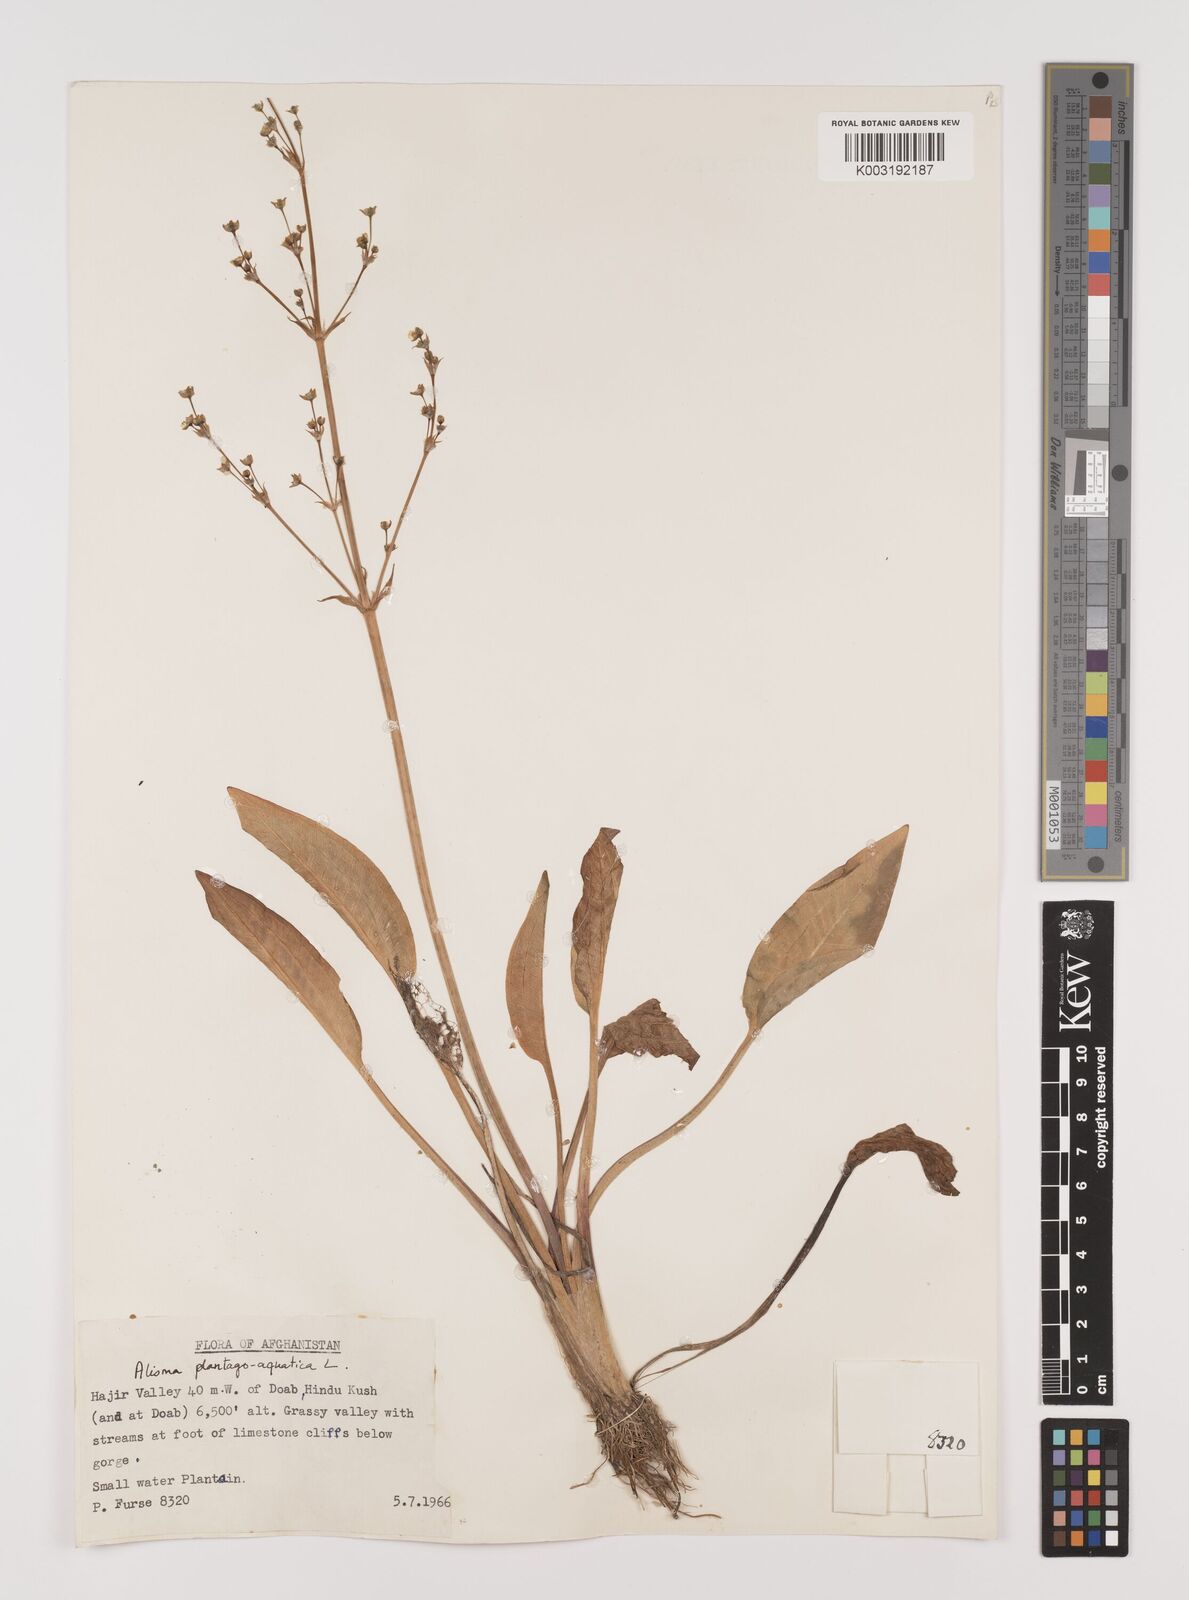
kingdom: Plantae
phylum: Tracheophyta
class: Liliopsida
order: Alismatales
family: Alismataceae
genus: Alisma
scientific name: Alisma plantago-aquatica
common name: Water-plantain
